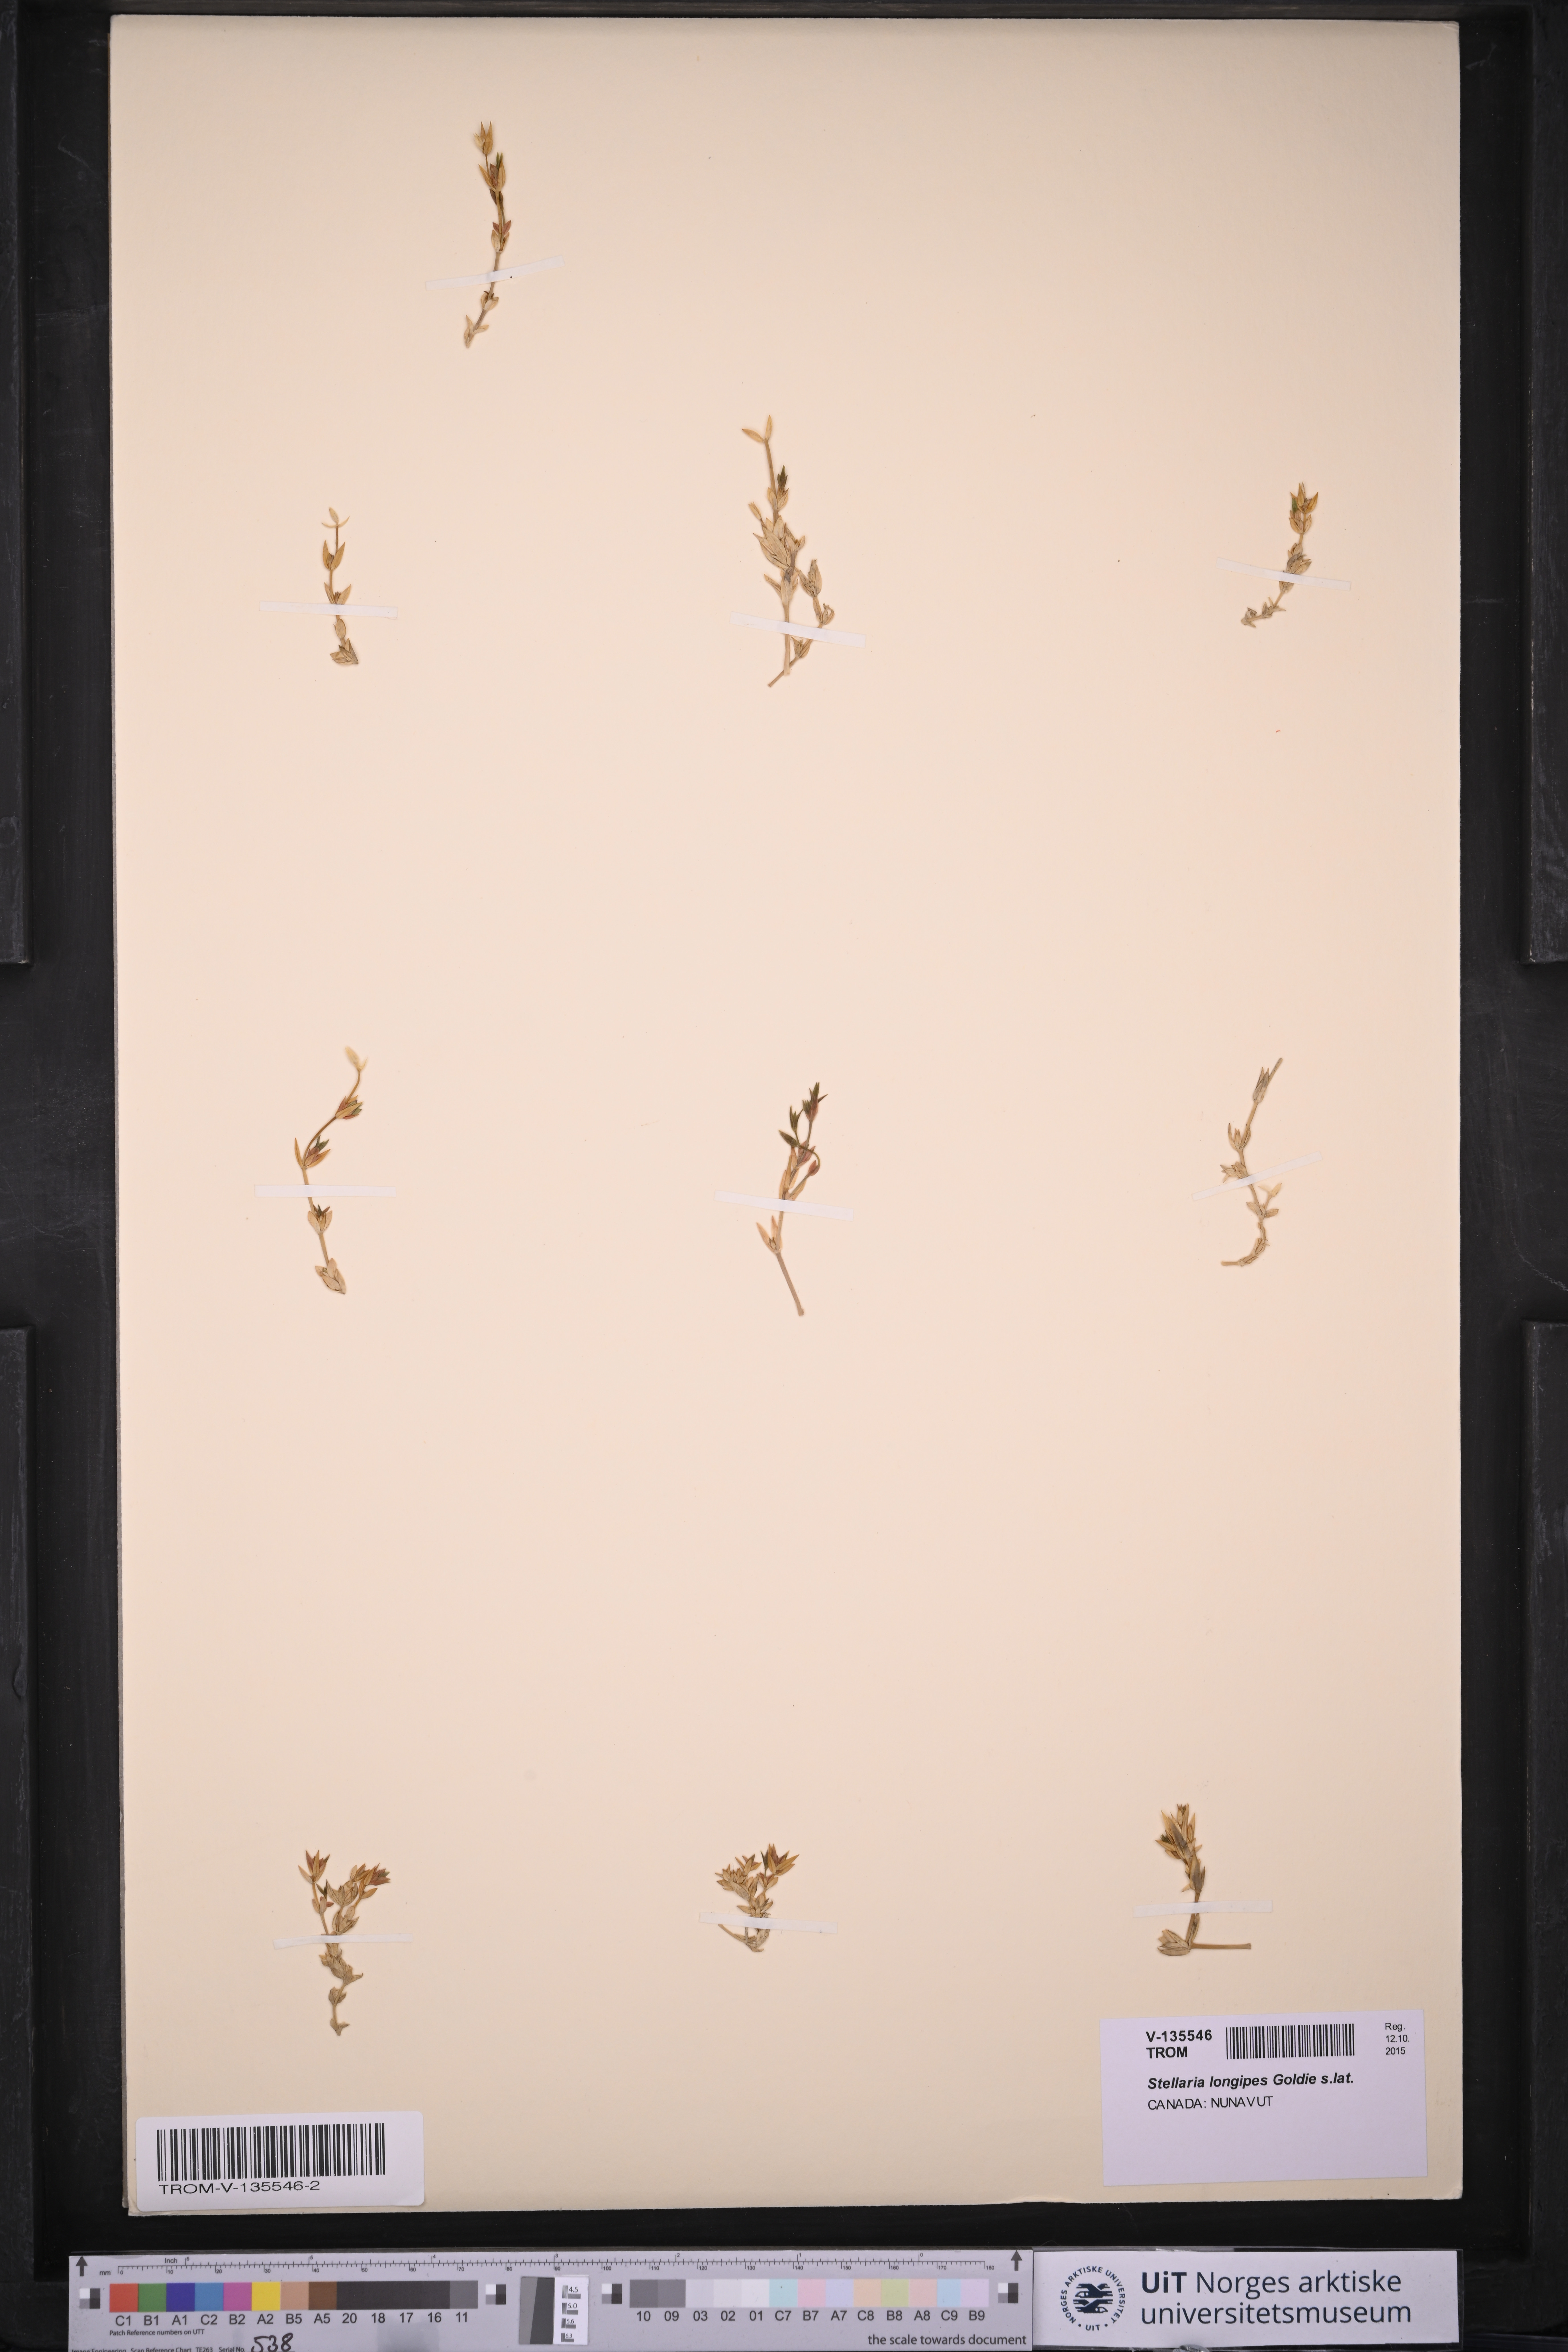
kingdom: Plantae
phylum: Tracheophyta
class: Magnoliopsida
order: Caryophyllales
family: Caryophyllaceae
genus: Stellaria
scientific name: Stellaria longipes
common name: Goldie's starwort
